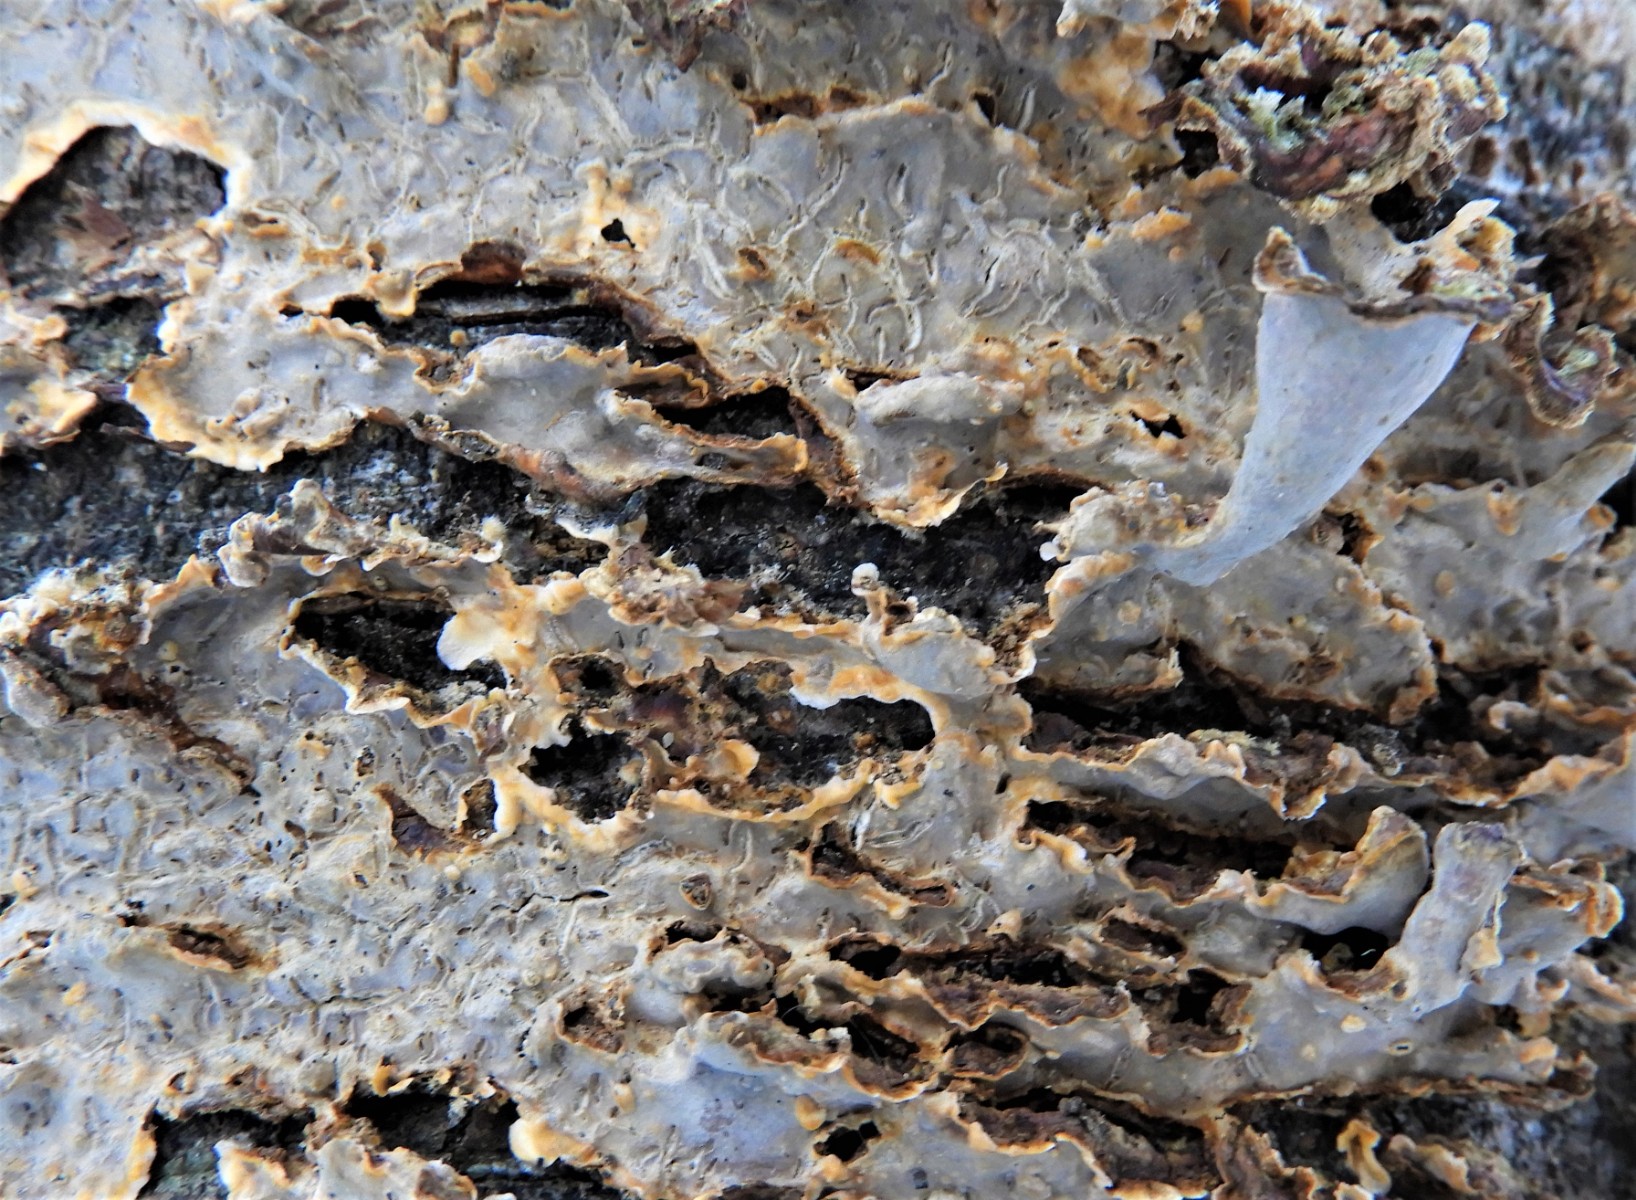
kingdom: Fungi
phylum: Basidiomycota
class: Agaricomycetes
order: Russulales
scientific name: Russulales
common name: skørhatordenen
